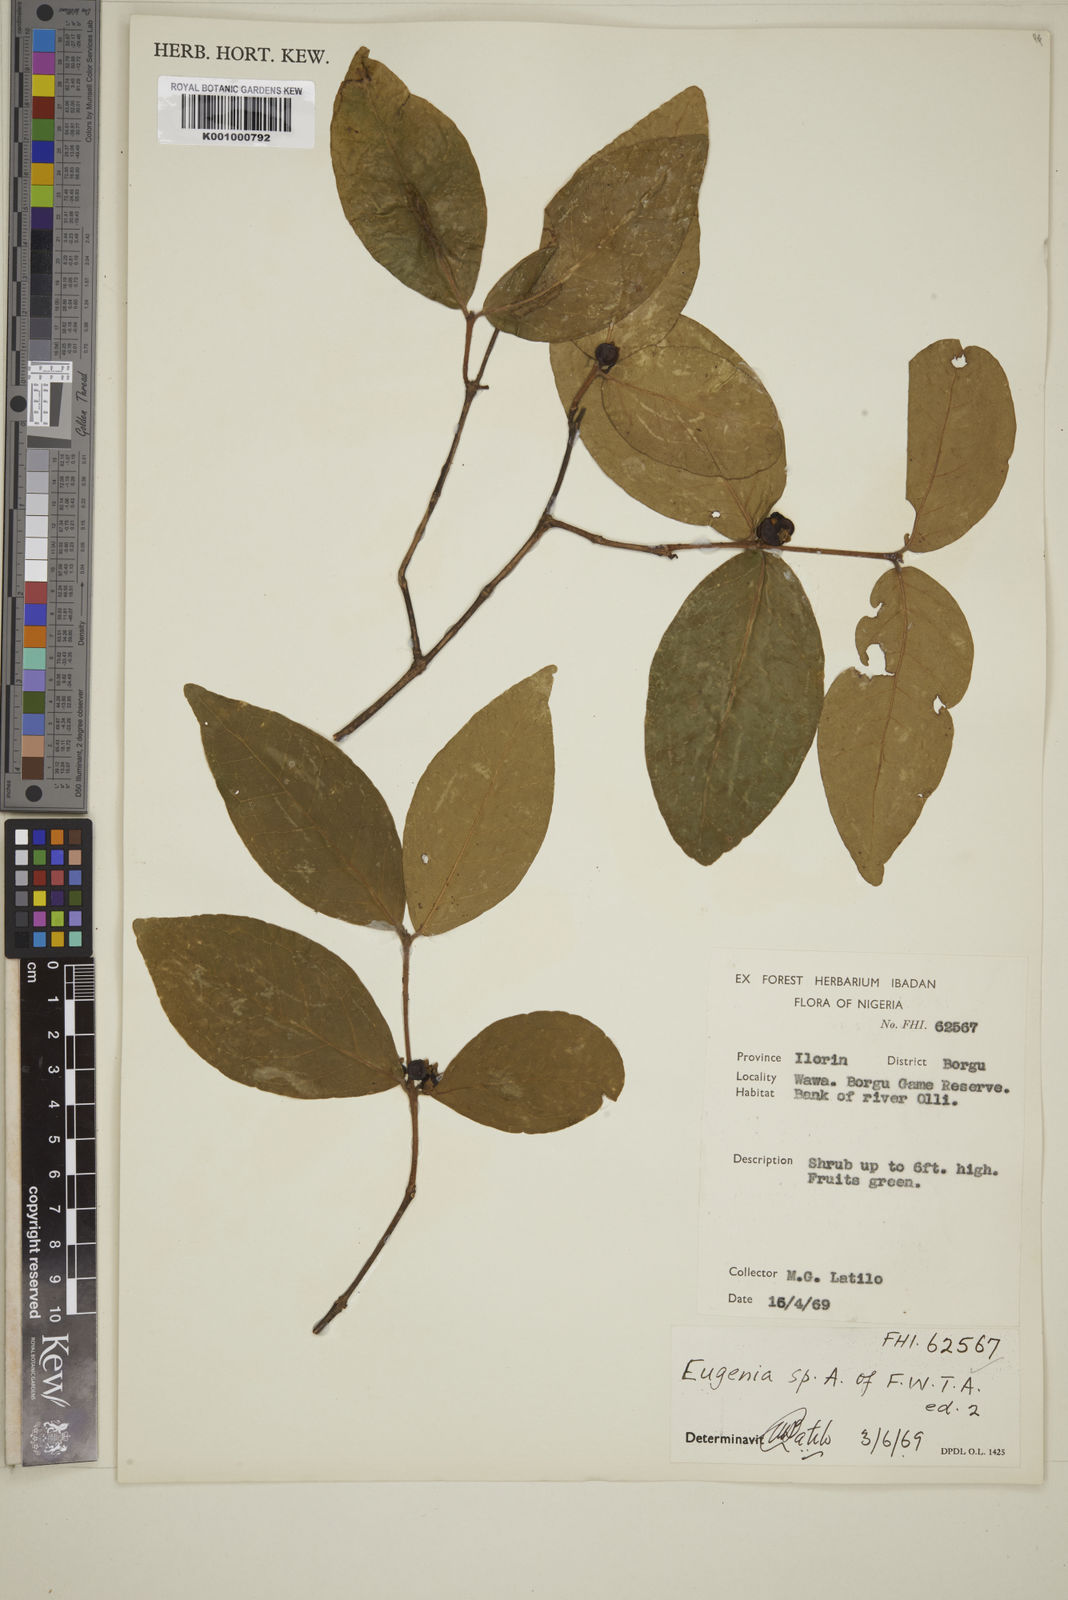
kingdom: Plantae
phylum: Tracheophyta
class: Magnoliopsida
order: Myrtales
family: Myrtaceae
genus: Eugenia
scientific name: Eugenia
